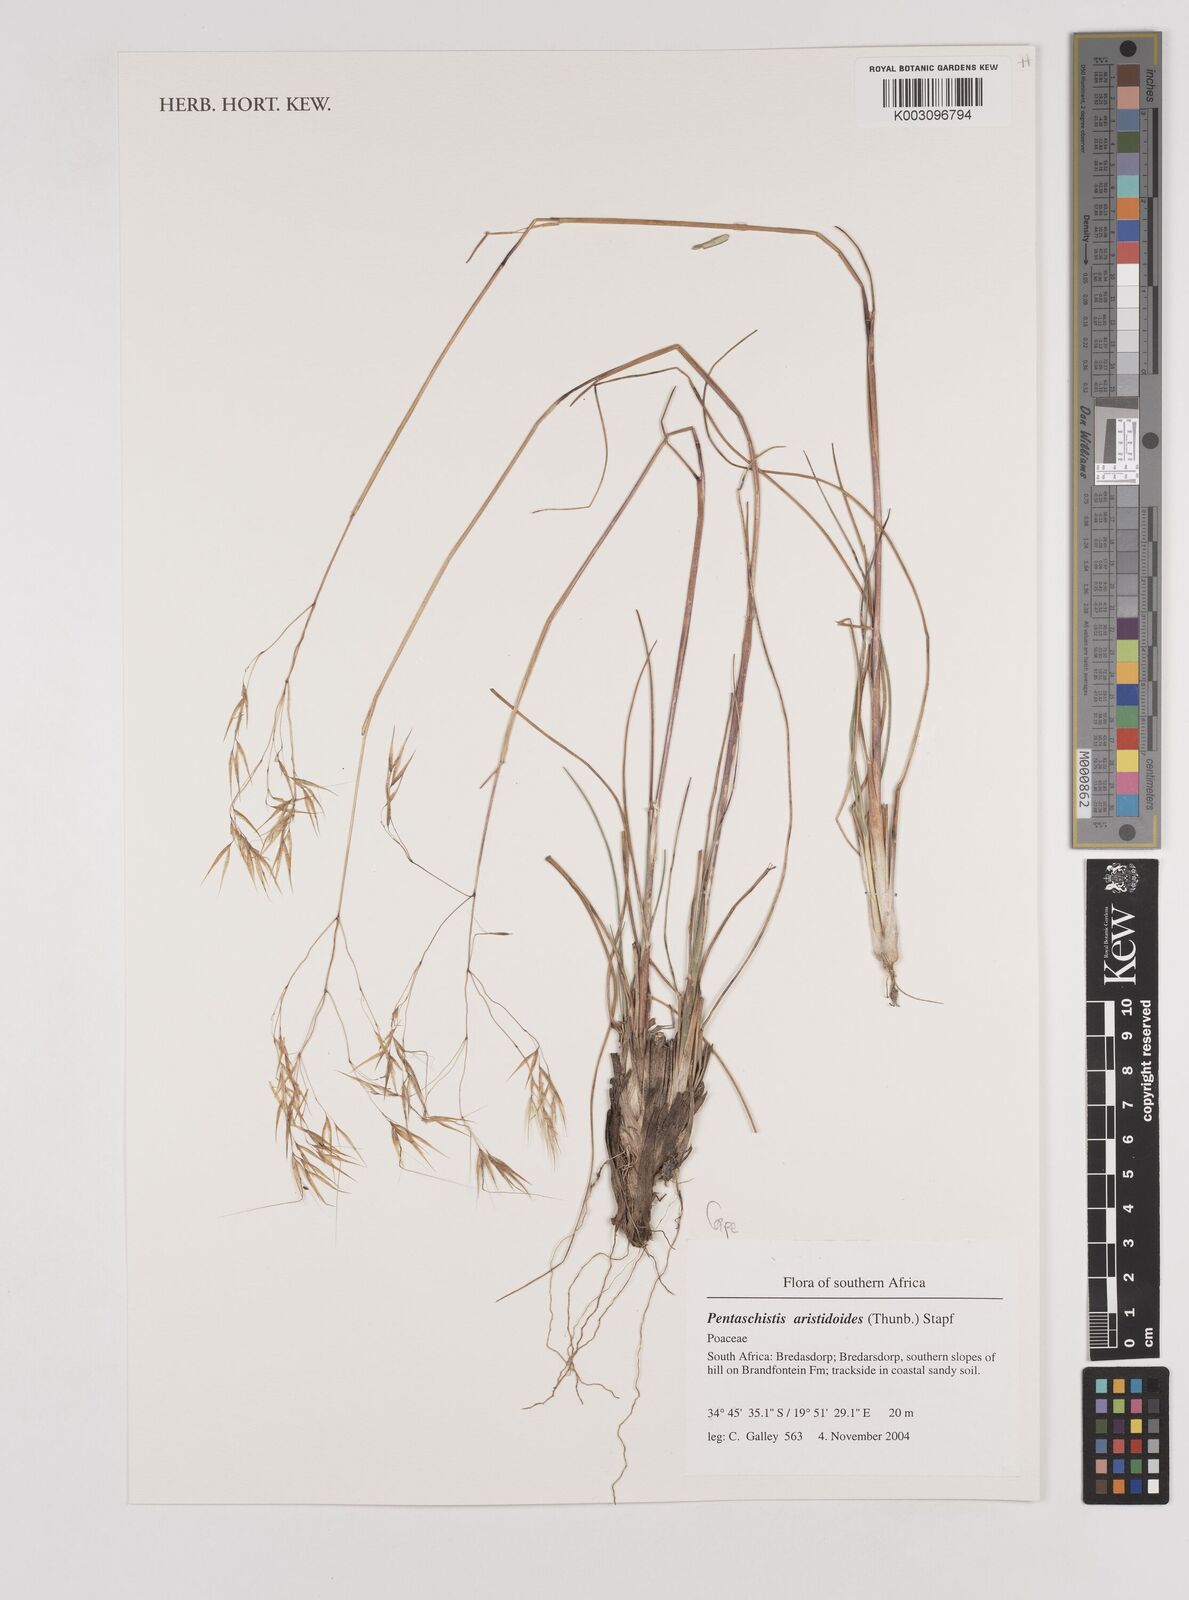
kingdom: Plantae
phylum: Tracheophyta
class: Liliopsida
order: Poales
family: Poaceae
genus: Pentameris
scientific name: Pentameris aristidoides
